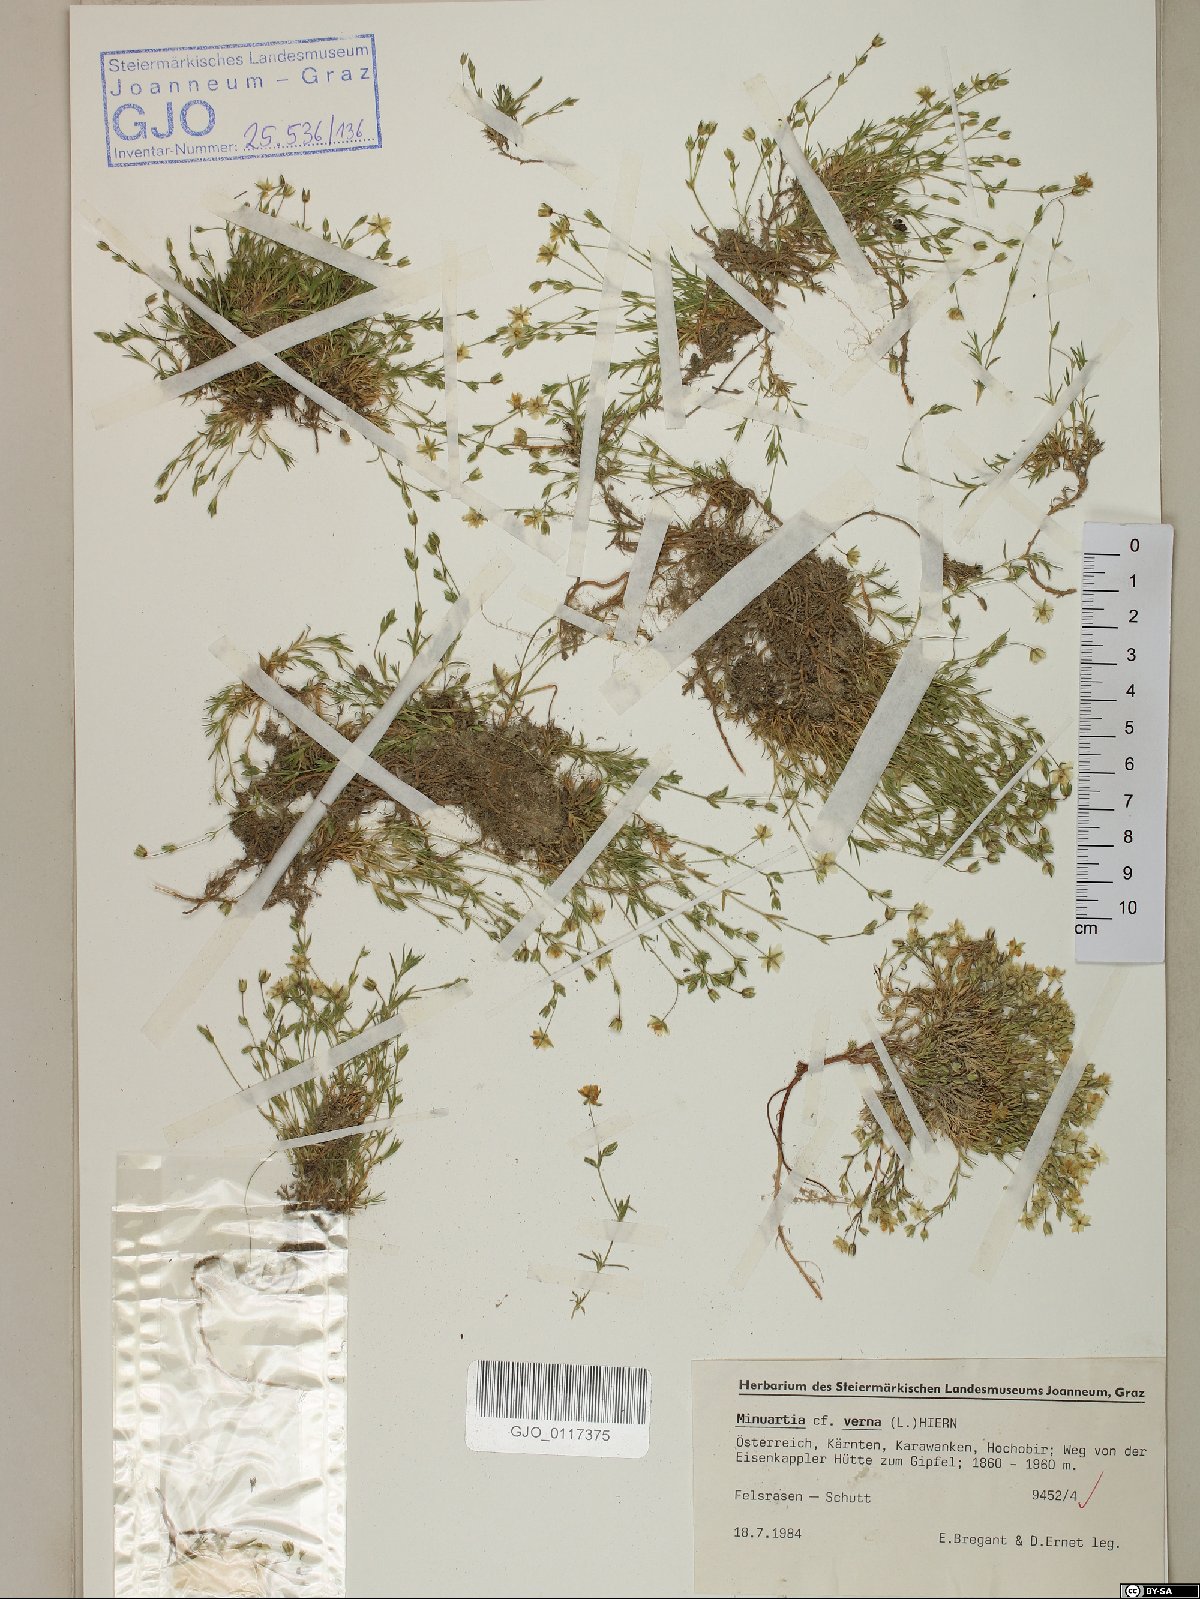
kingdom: Plantae
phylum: Tracheophyta
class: Magnoliopsida
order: Caryophyllales
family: Caryophyllaceae
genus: Sabulina
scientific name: Sabulina verna
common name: Spring sandwort
